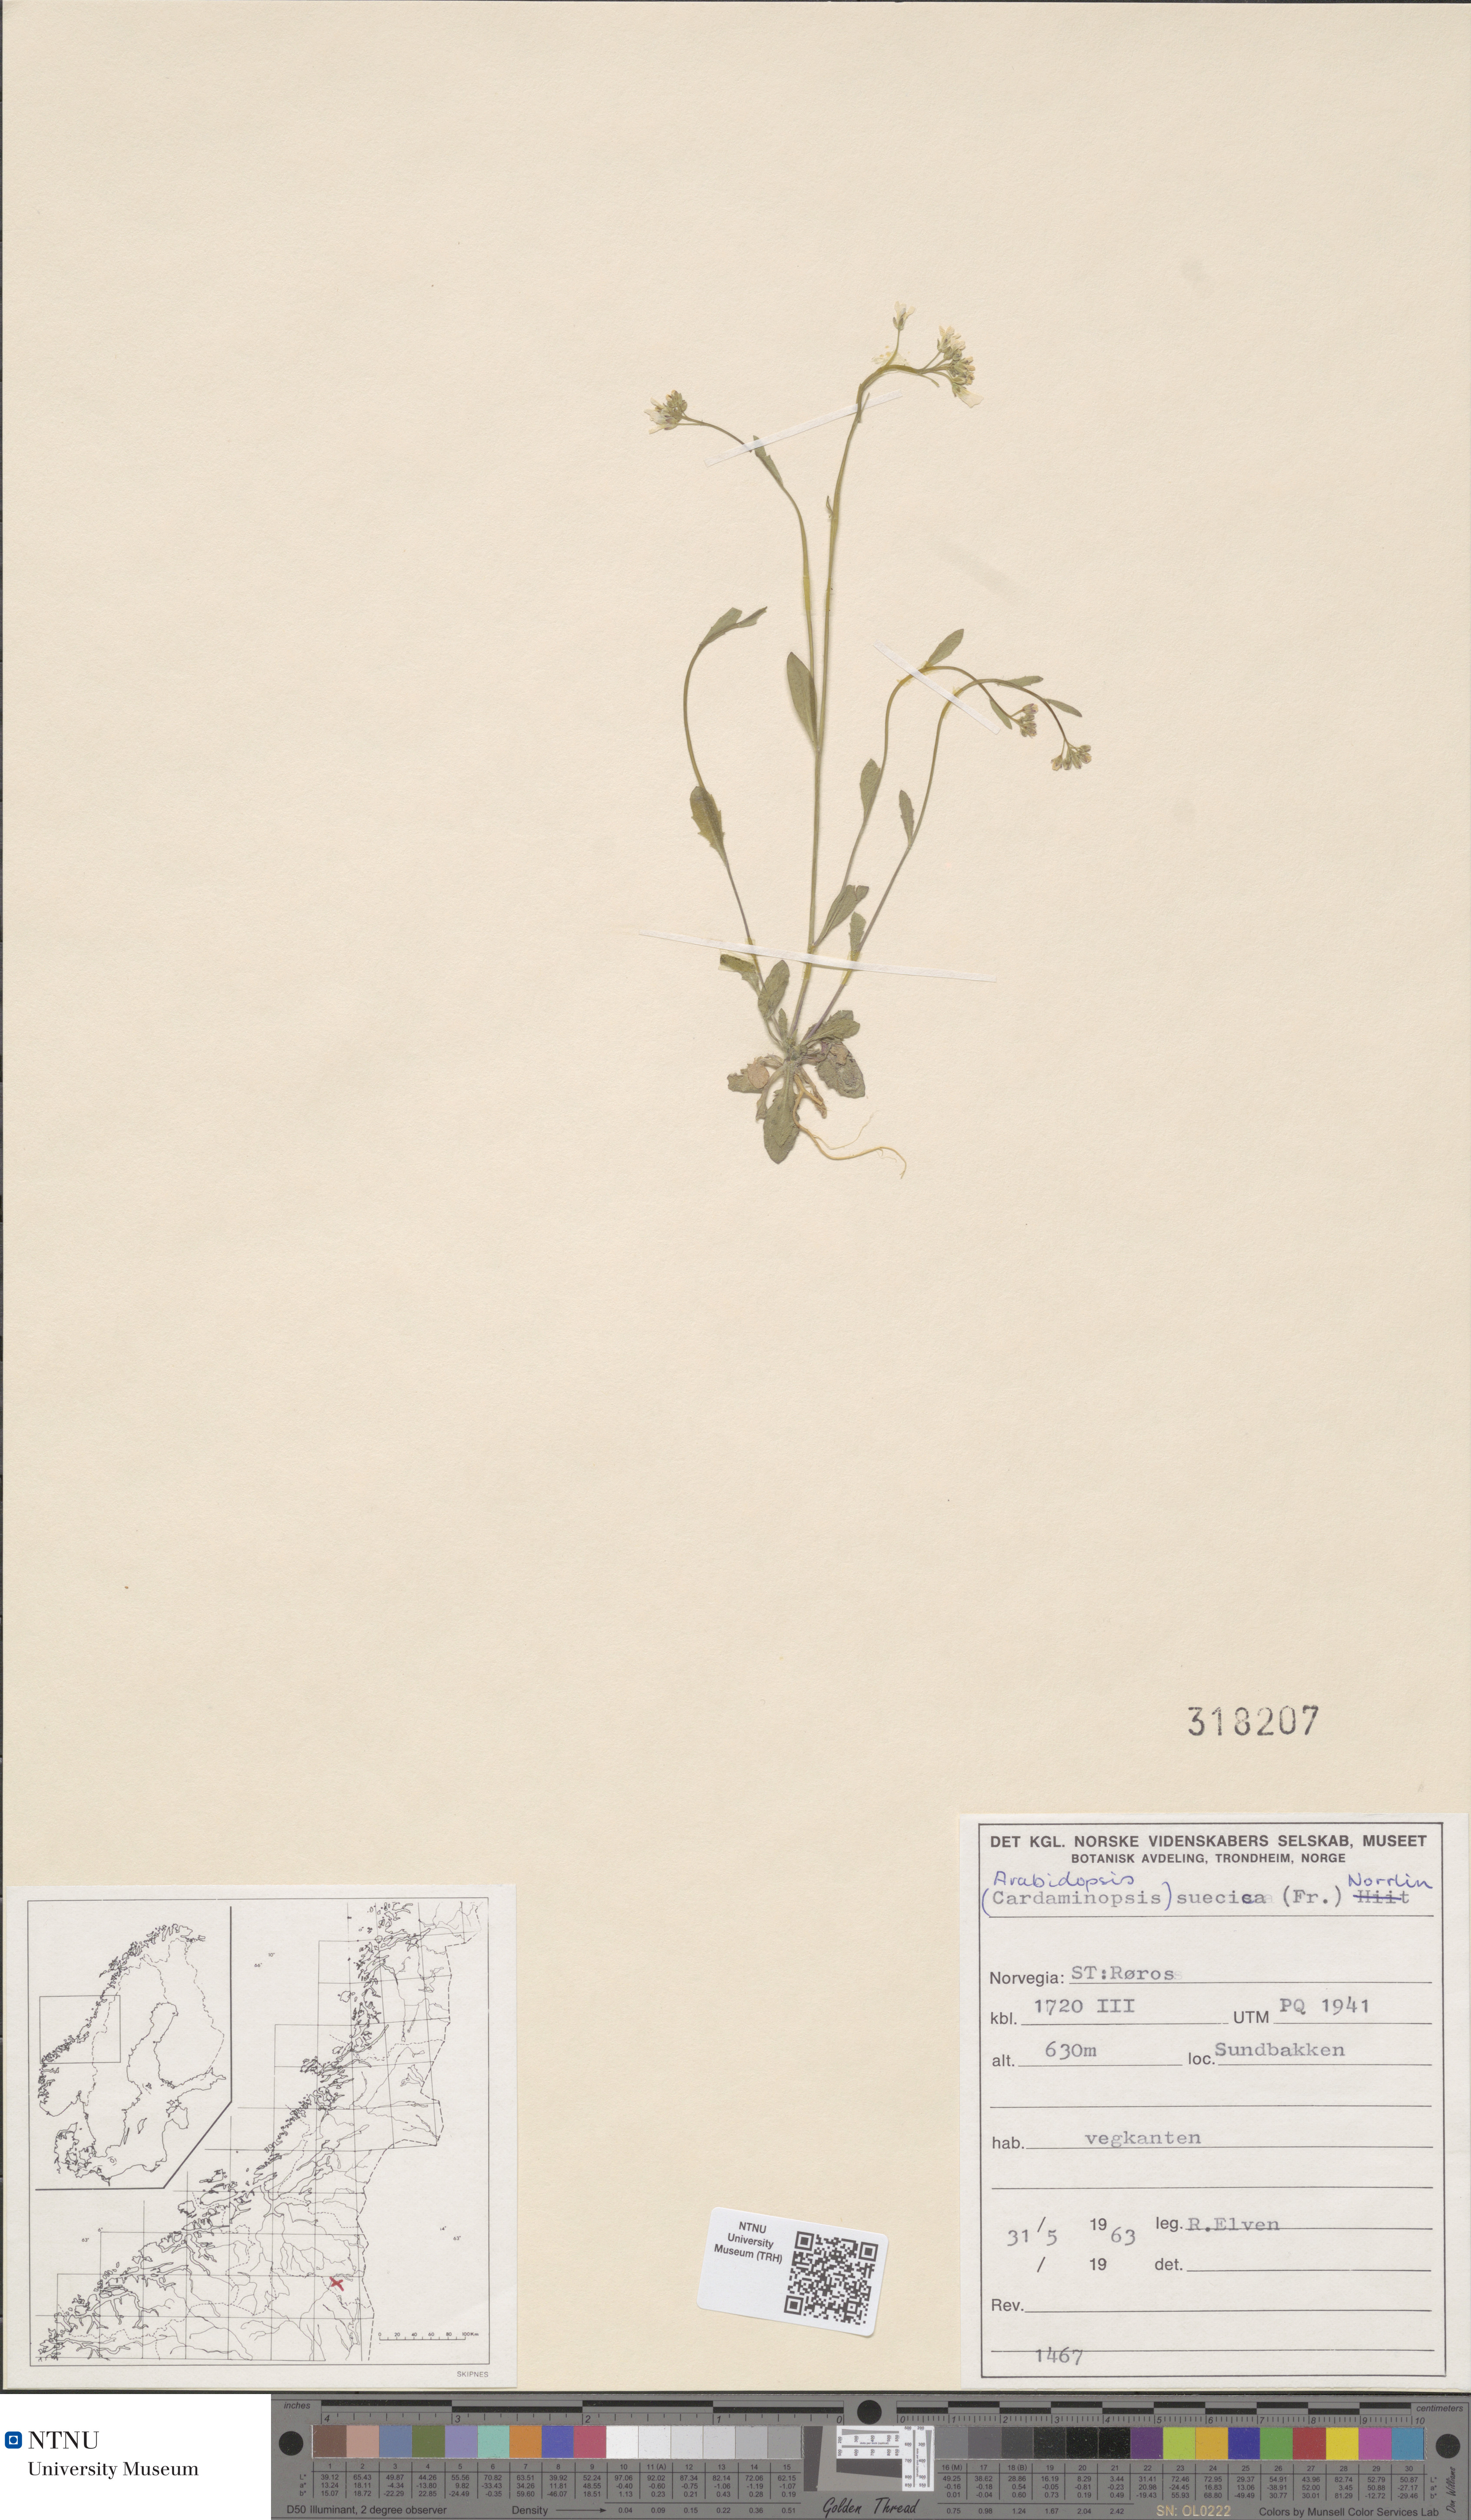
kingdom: Plantae
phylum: Tracheophyta
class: Magnoliopsida
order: Brassicales
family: Brassicaceae
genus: Arabidopsis
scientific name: Arabidopsis suecica
